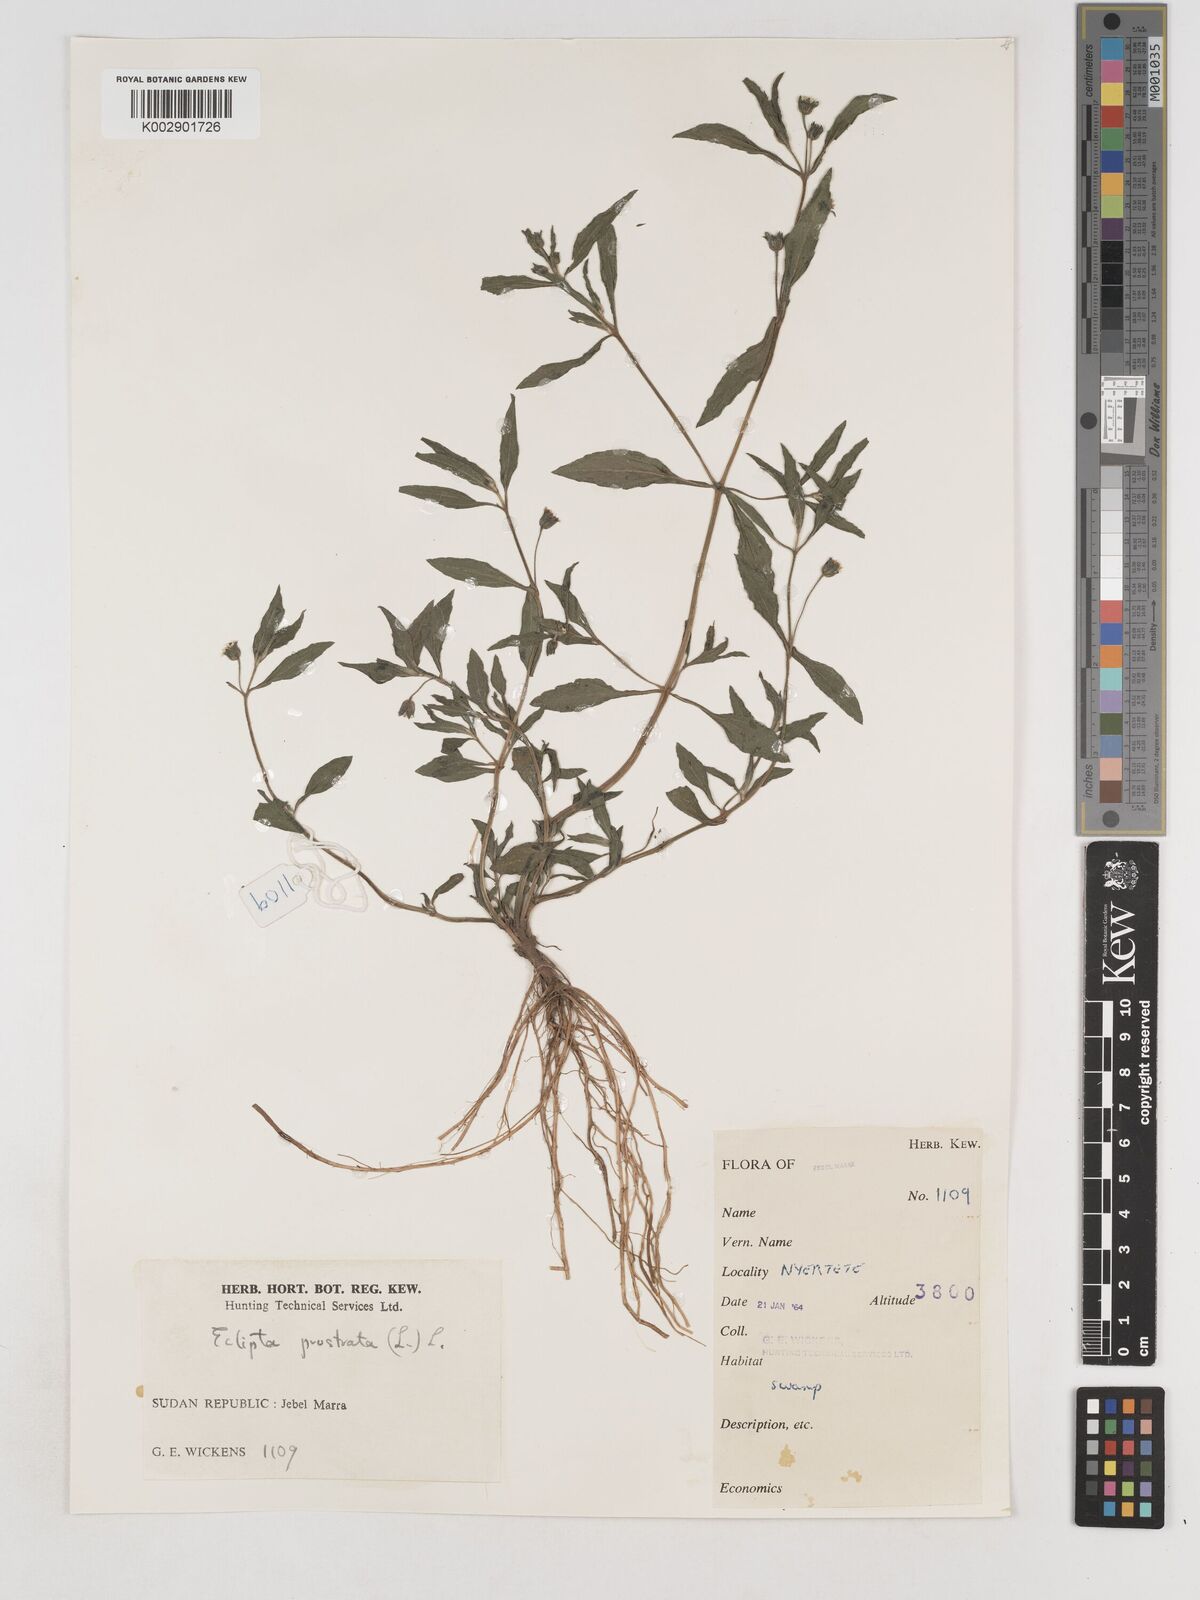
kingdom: Plantae
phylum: Tracheophyta
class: Magnoliopsida
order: Asterales
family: Asteraceae
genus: Eclipta
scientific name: Eclipta prostrata
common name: False daisy
